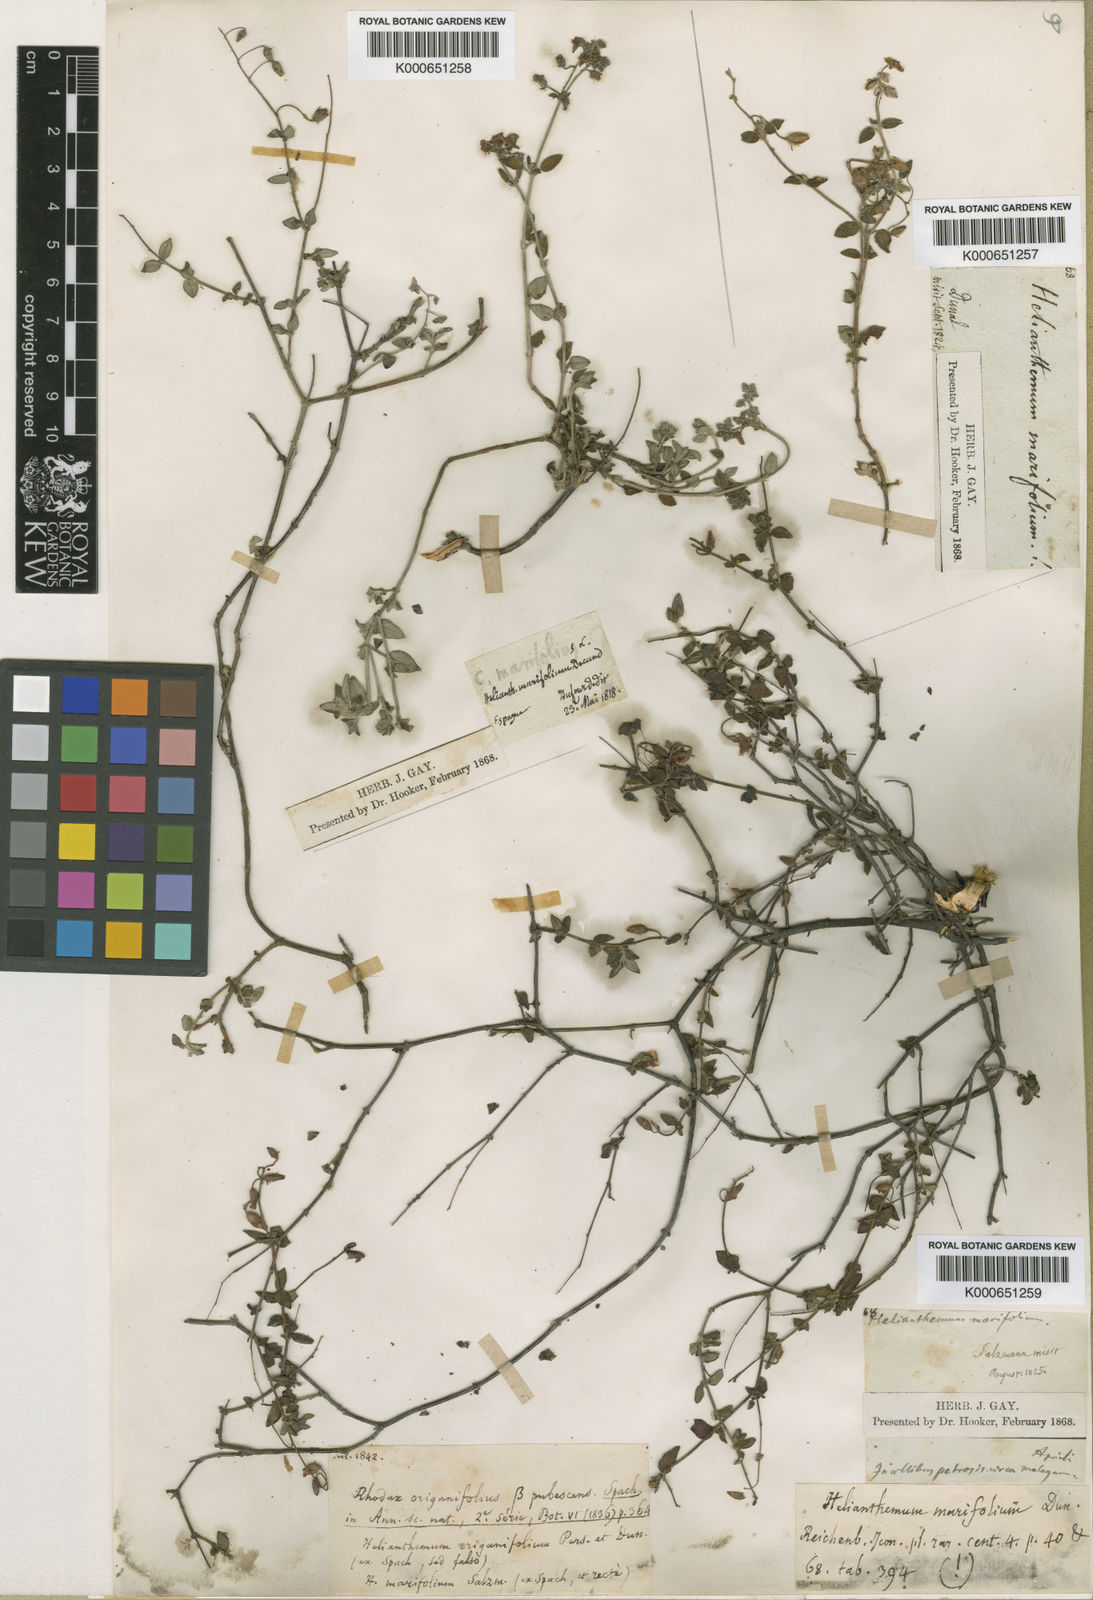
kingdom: Plantae
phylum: Tracheophyta
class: Magnoliopsida
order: Malvales
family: Cistaceae
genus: Helianthemum
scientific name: Helianthemum marifolium
